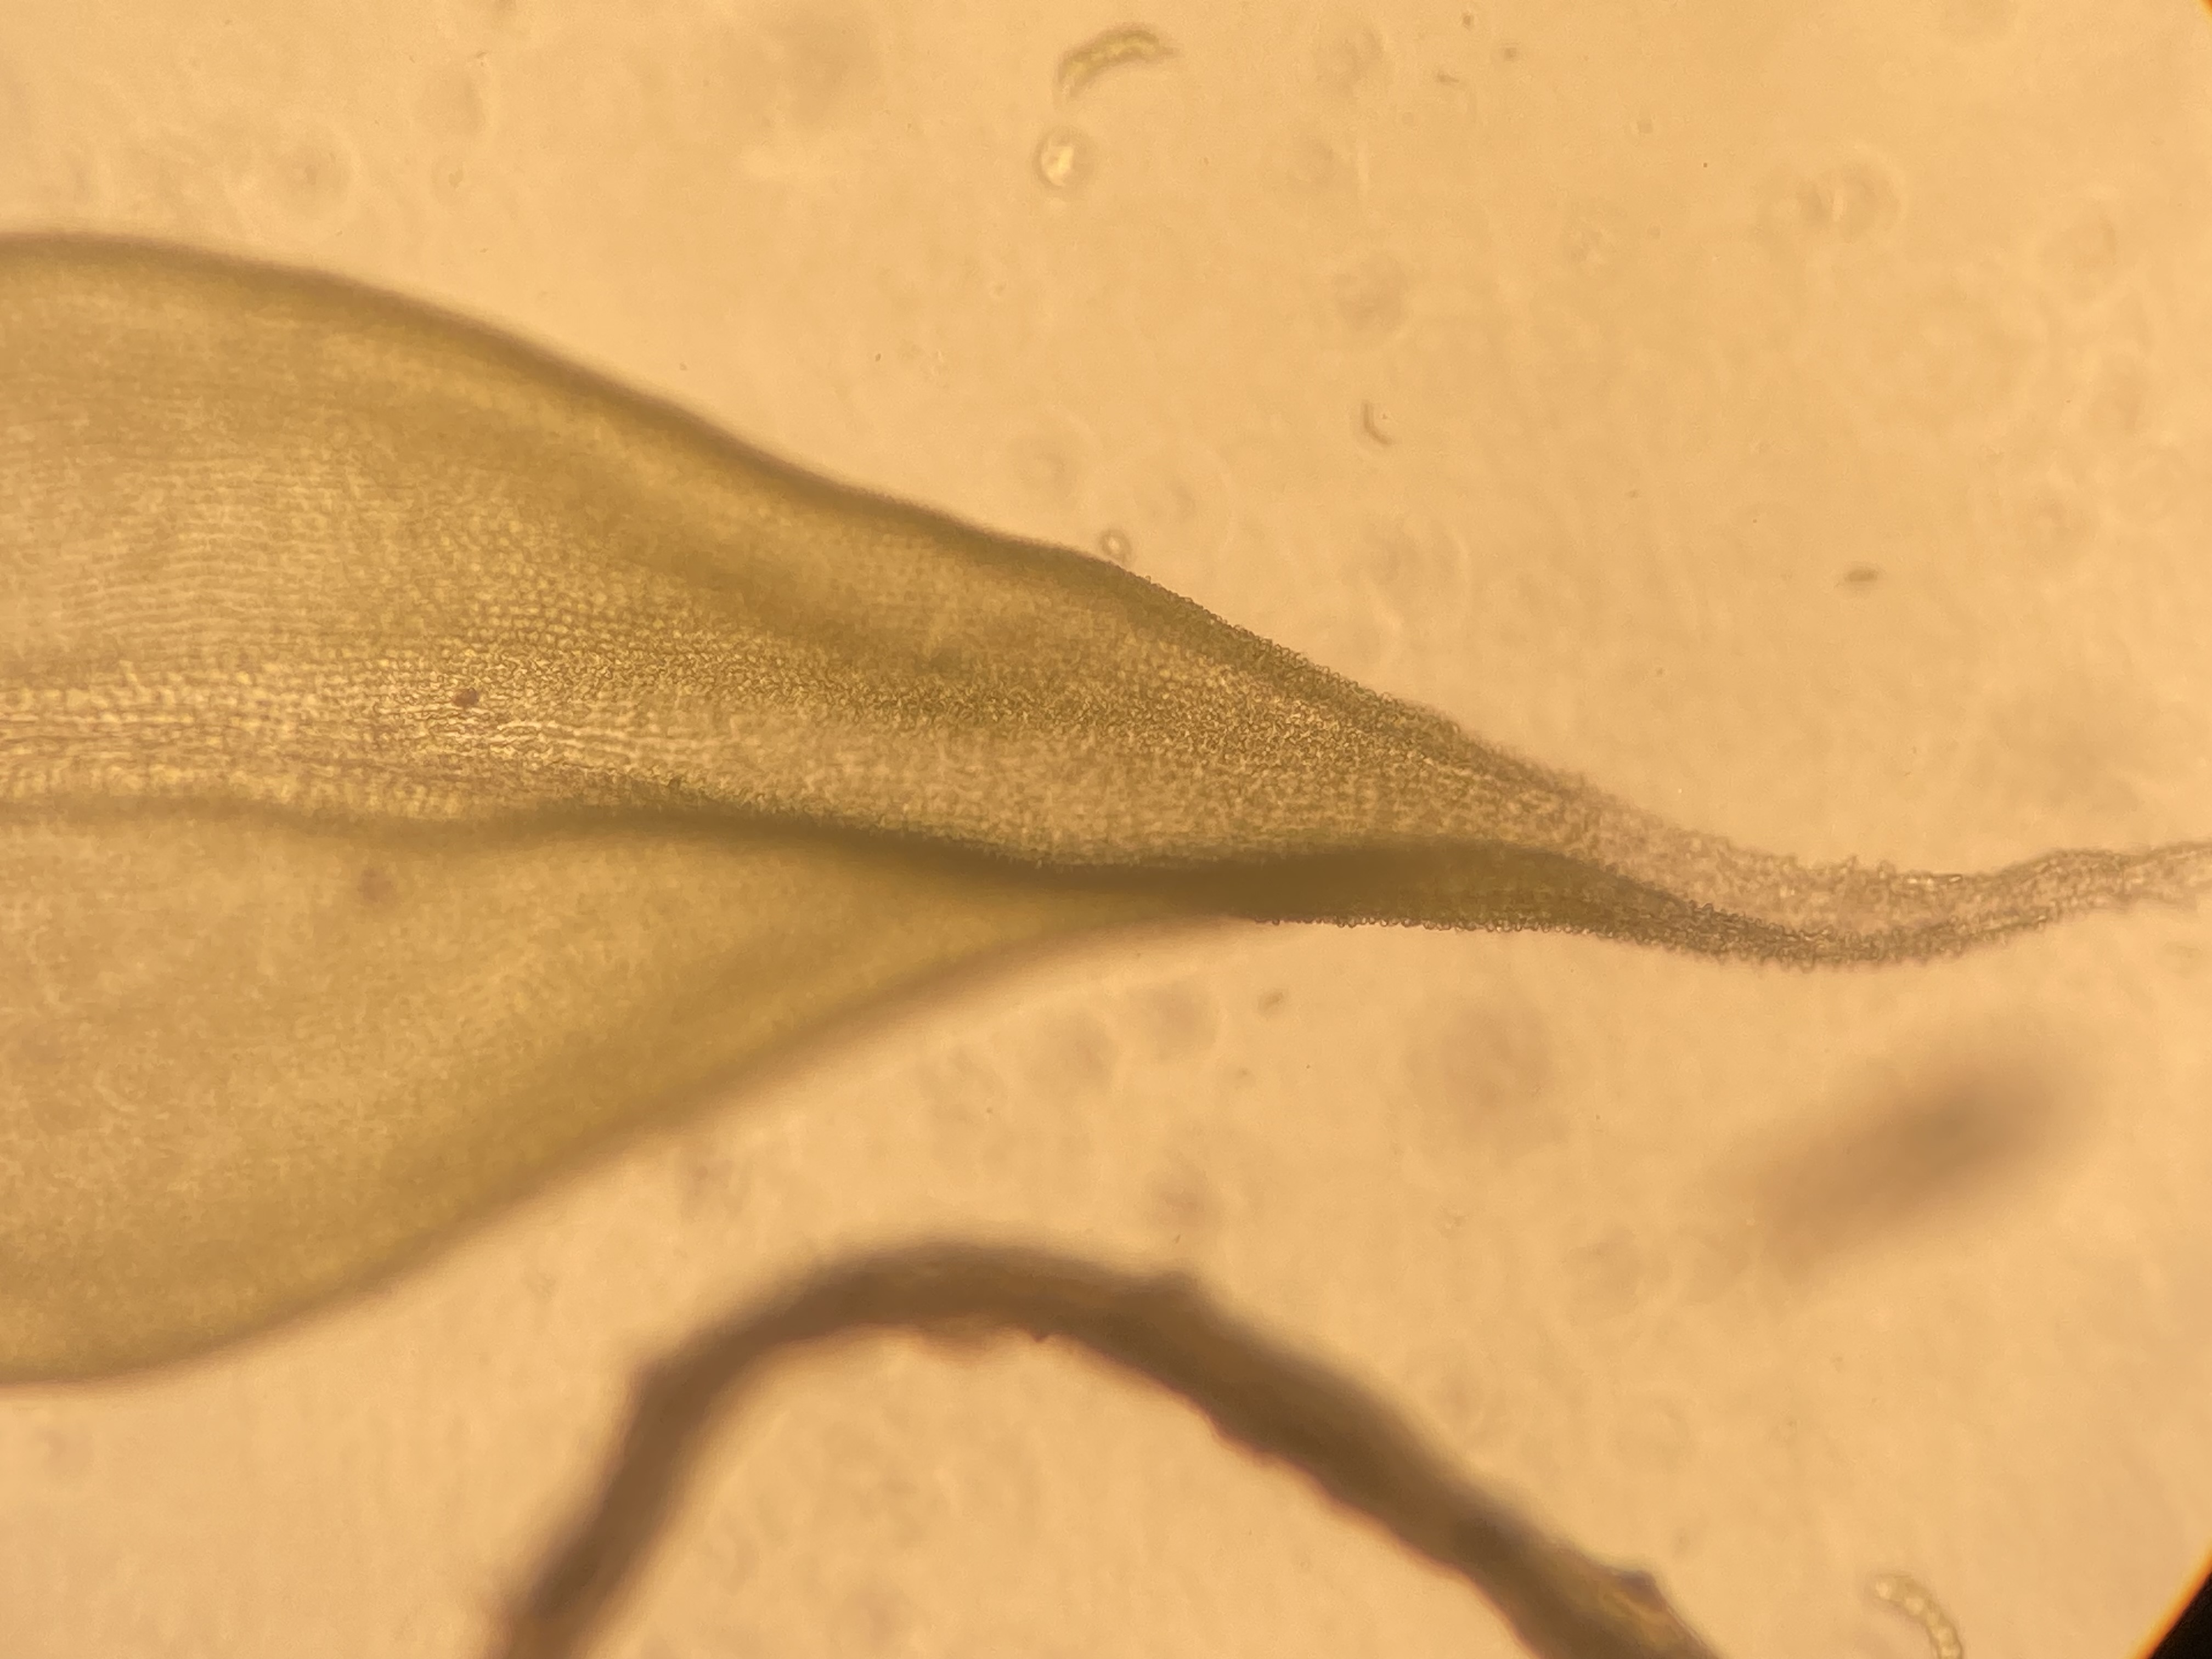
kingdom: Plantae
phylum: Bryophyta
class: Bryopsida
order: Grimmiales
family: Grimmiaceae
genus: Niphotrichum
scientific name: Niphotrichum canescens
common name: Sand-børstemos
